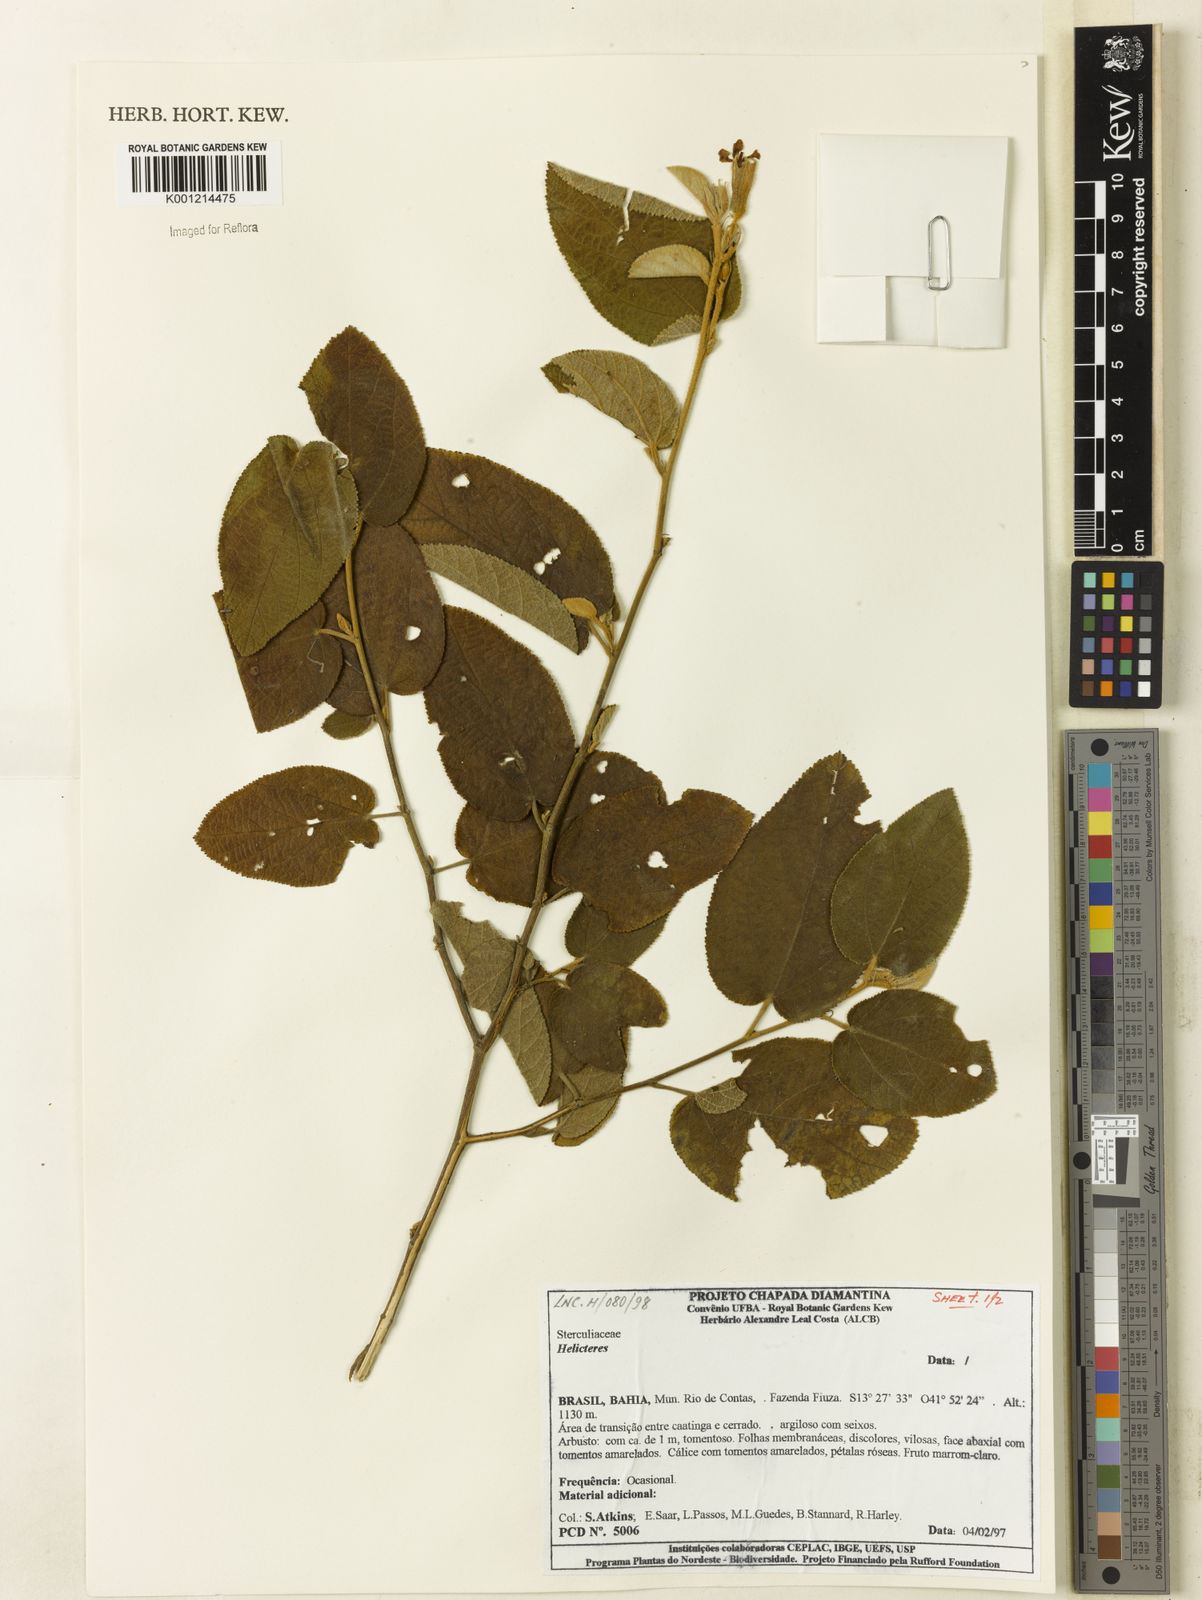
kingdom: Plantae
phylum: Tracheophyta
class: Magnoliopsida
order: Malvales
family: Malvaceae
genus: Helicteres
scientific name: Helicteres
